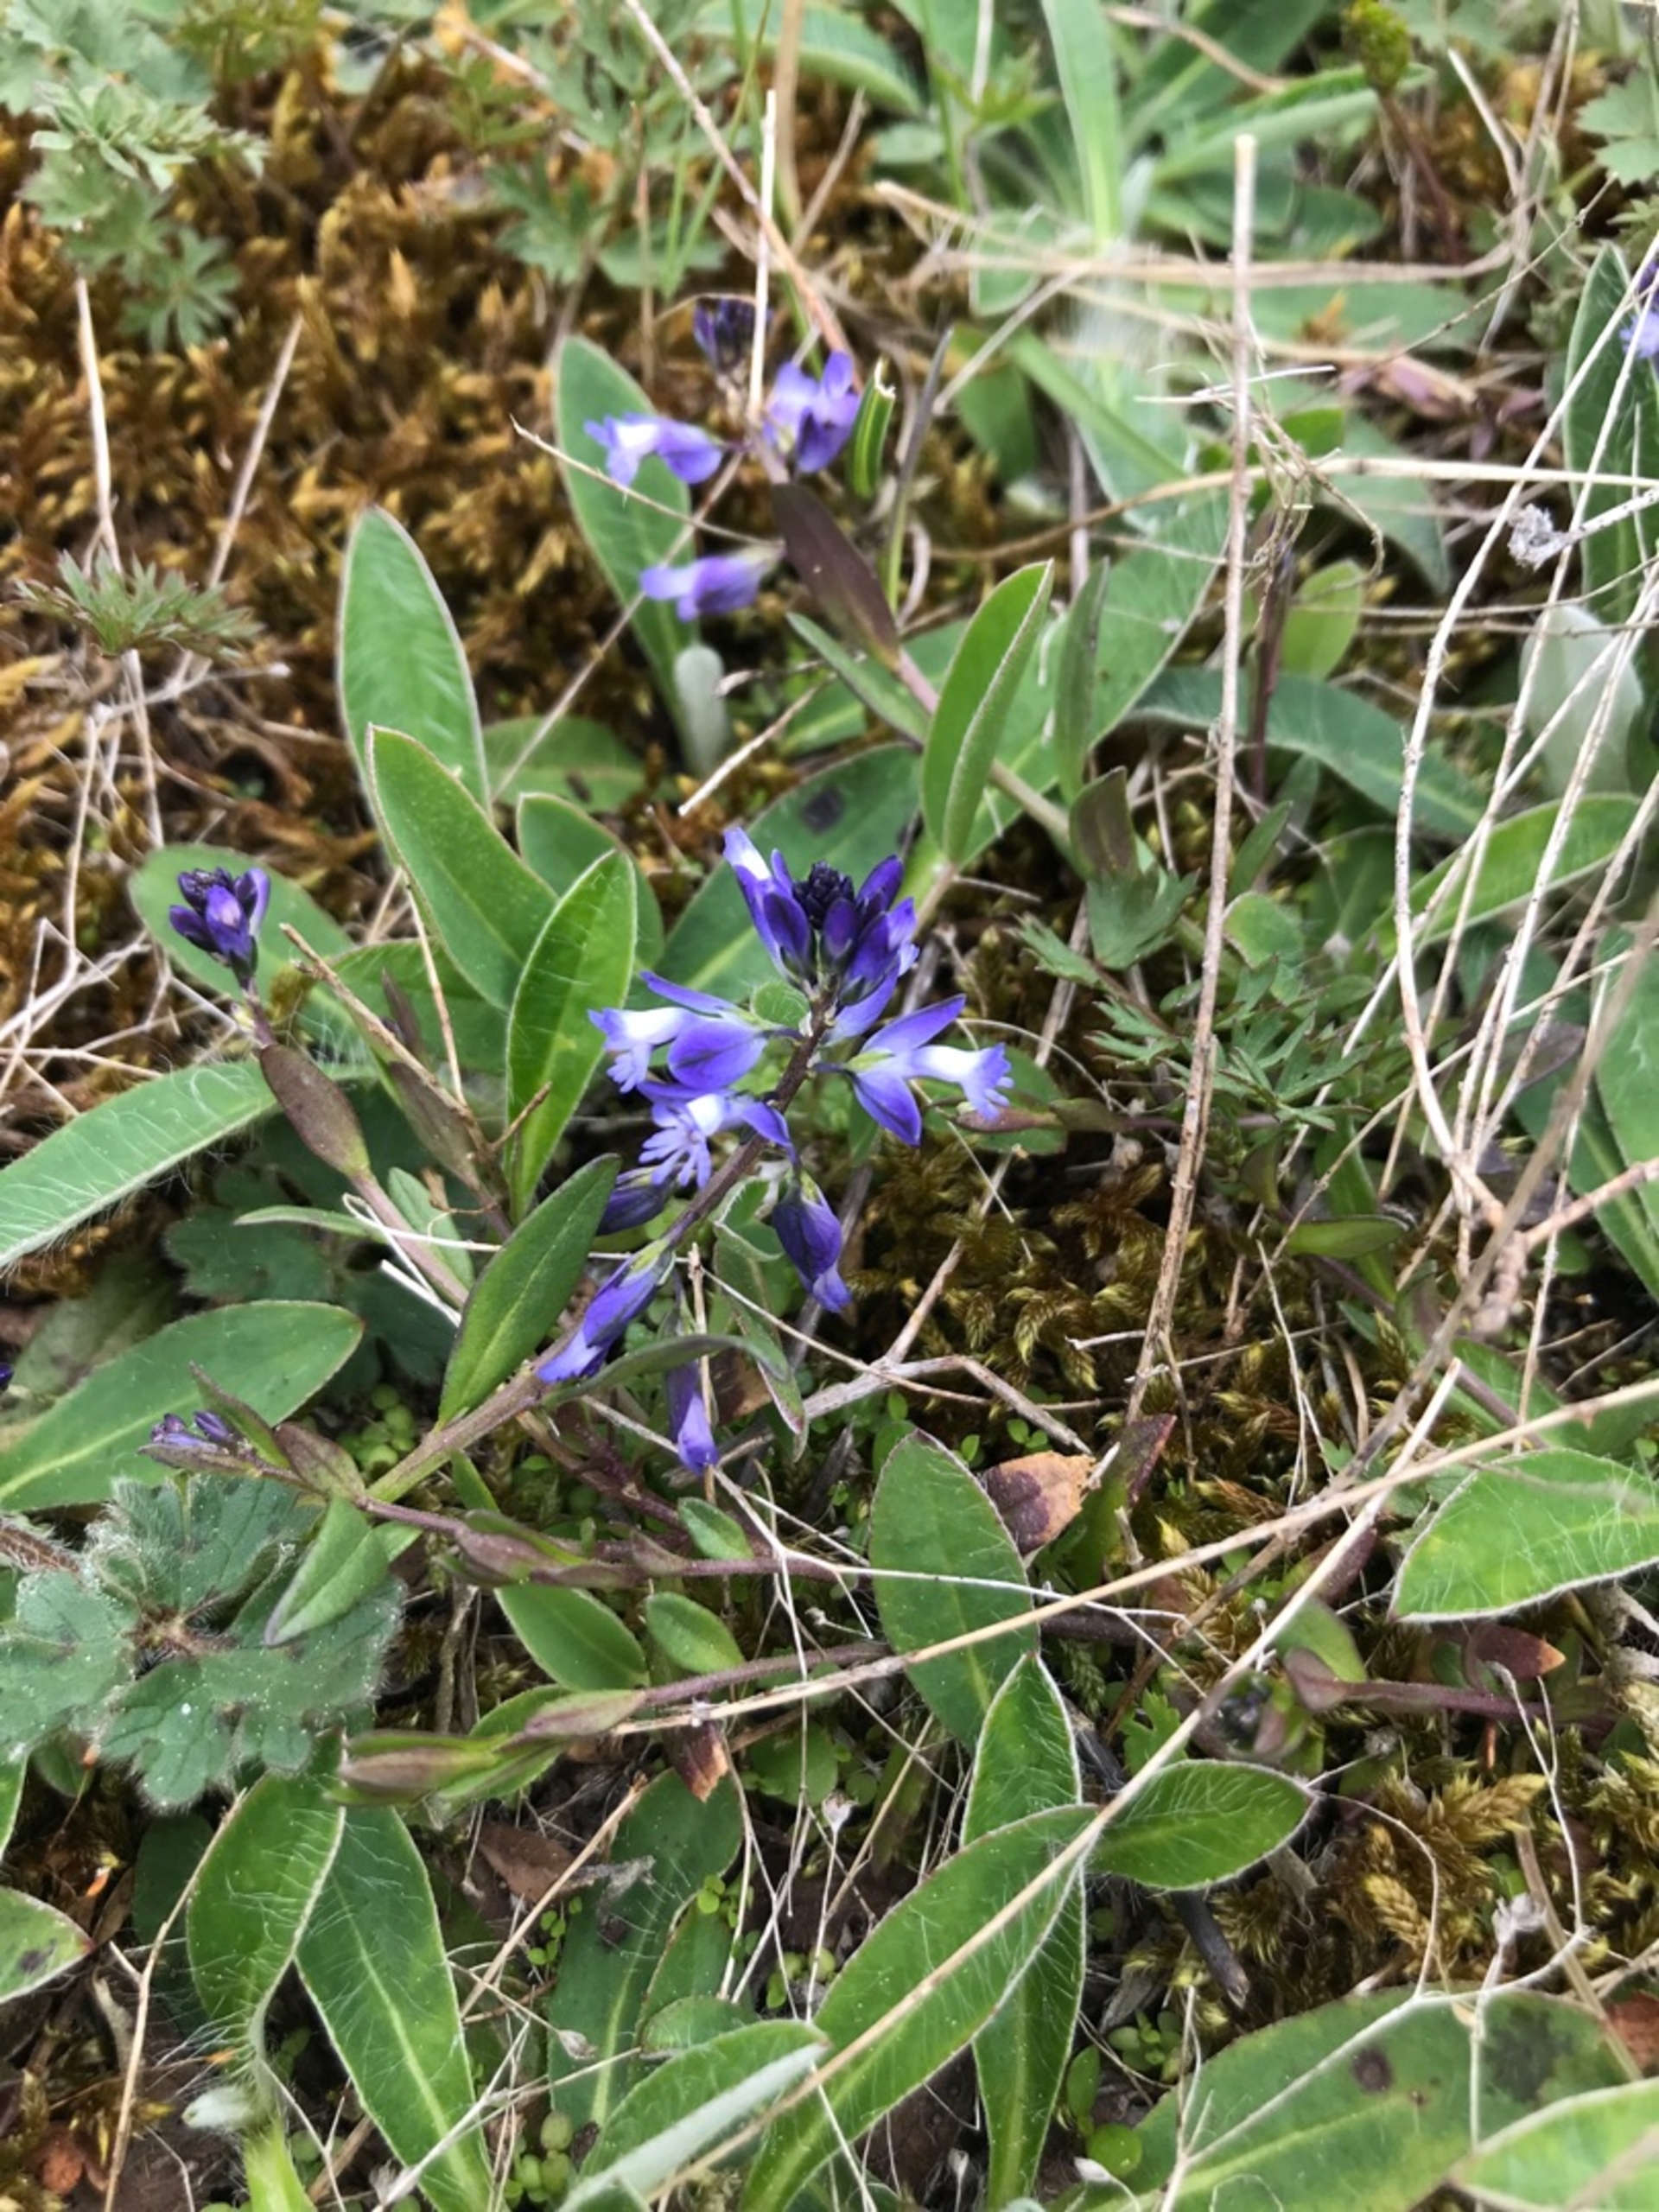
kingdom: Plantae
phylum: Tracheophyta
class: Magnoliopsida
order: Fabales
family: Polygalaceae
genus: Polygala
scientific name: Polygala vulgaris
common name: Almindelig mælkeurt
